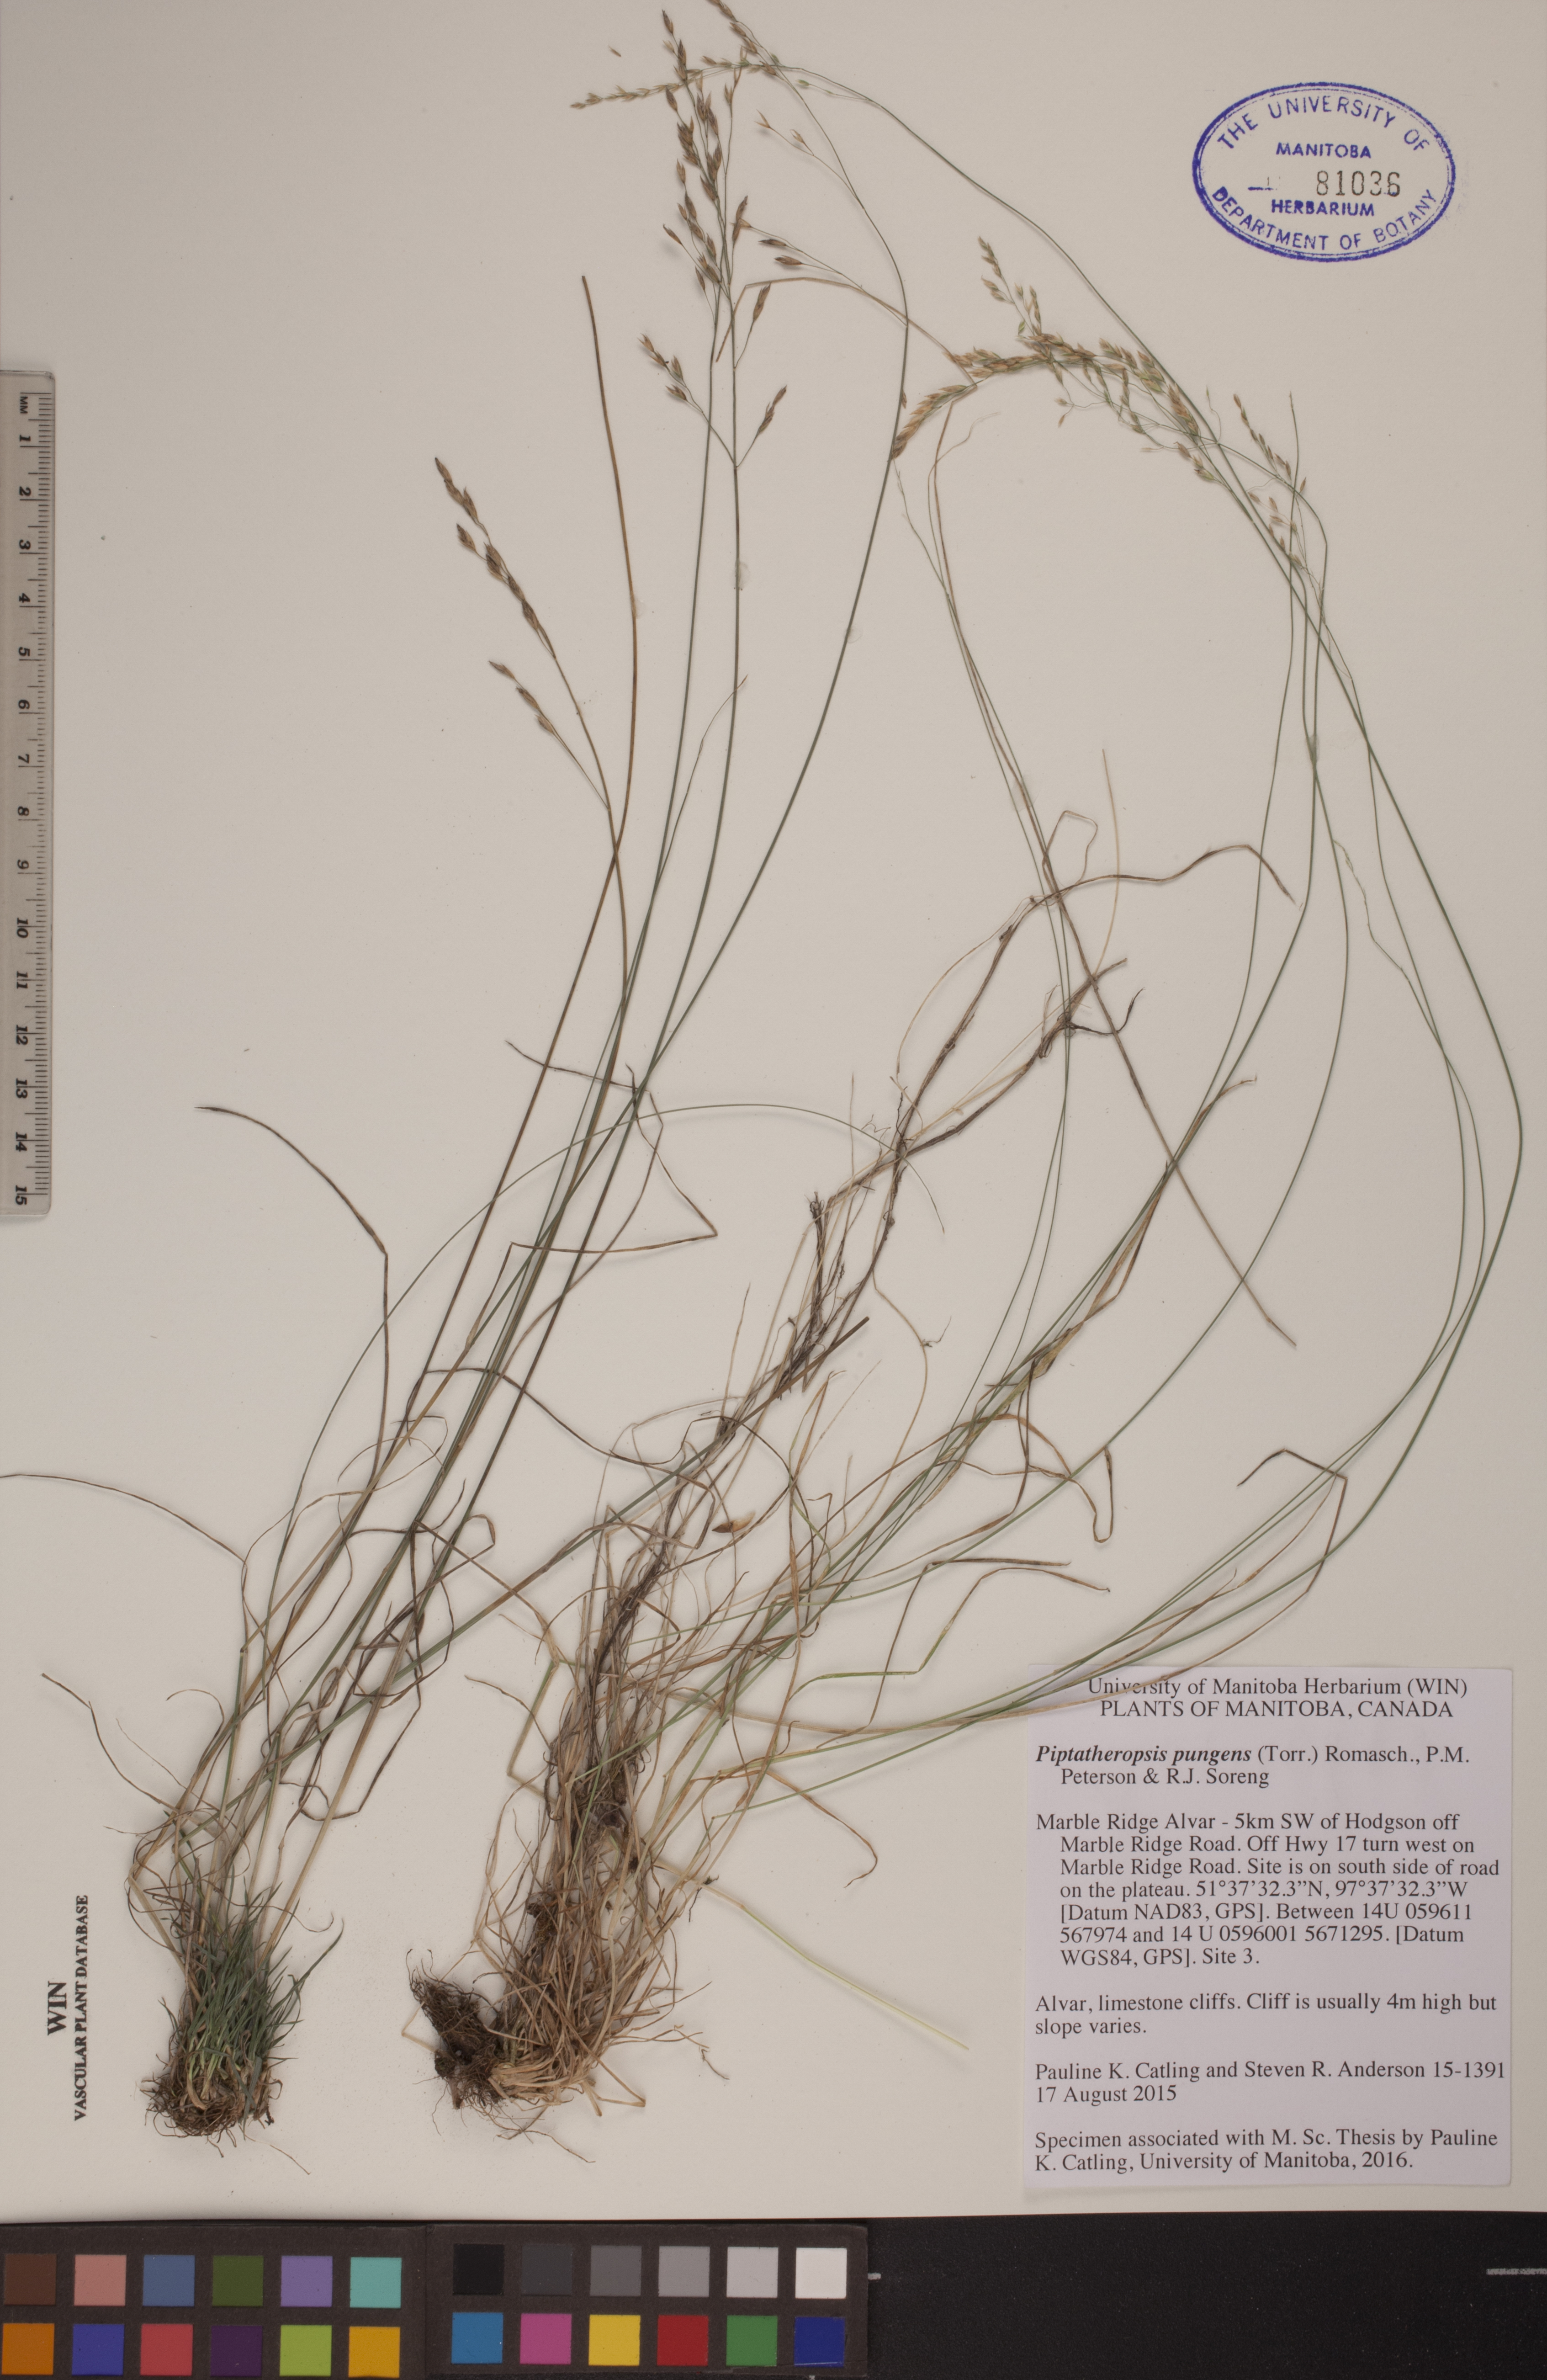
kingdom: Plantae
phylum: Tracheophyta
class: Liliopsida
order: Poales
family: Poaceae
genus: Piptatheropsis
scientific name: Piptatheropsis pungens
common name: Northern ricegrass
